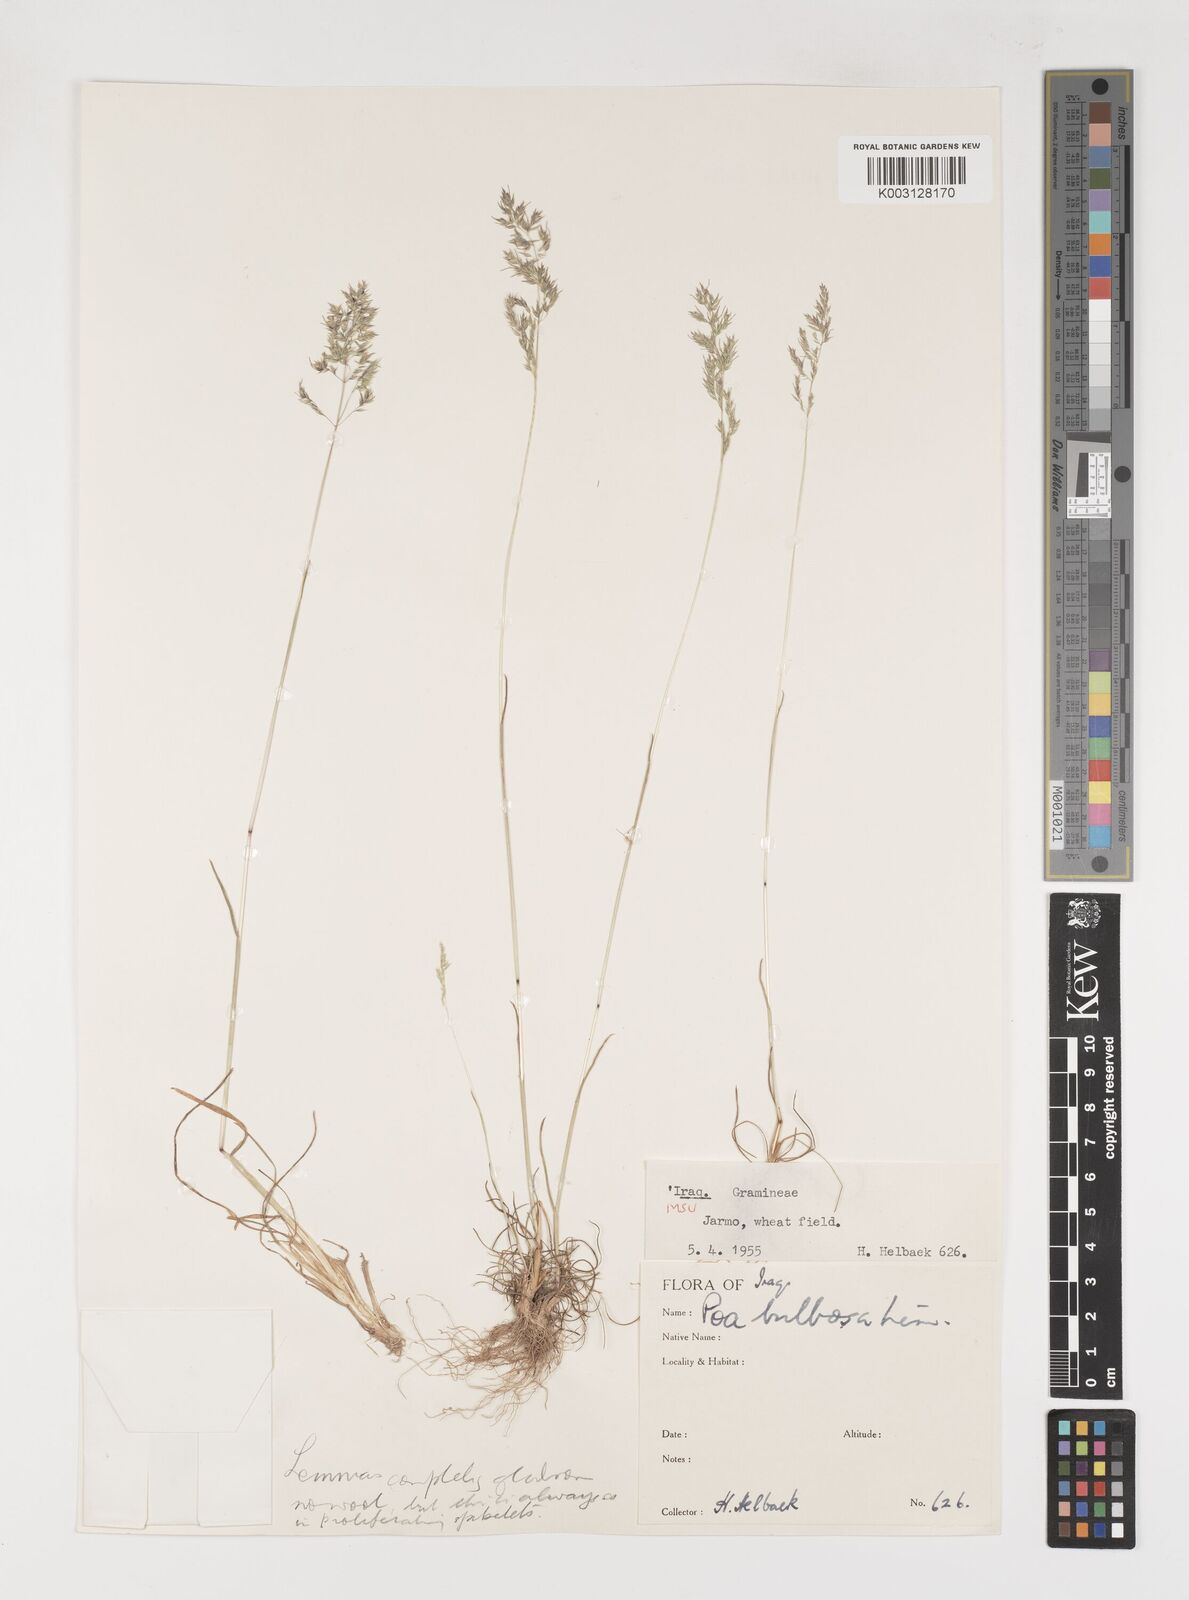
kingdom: Plantae
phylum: Tracheophyta
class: Liliopsida
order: Poales
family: Poaceae
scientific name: Poaceae
